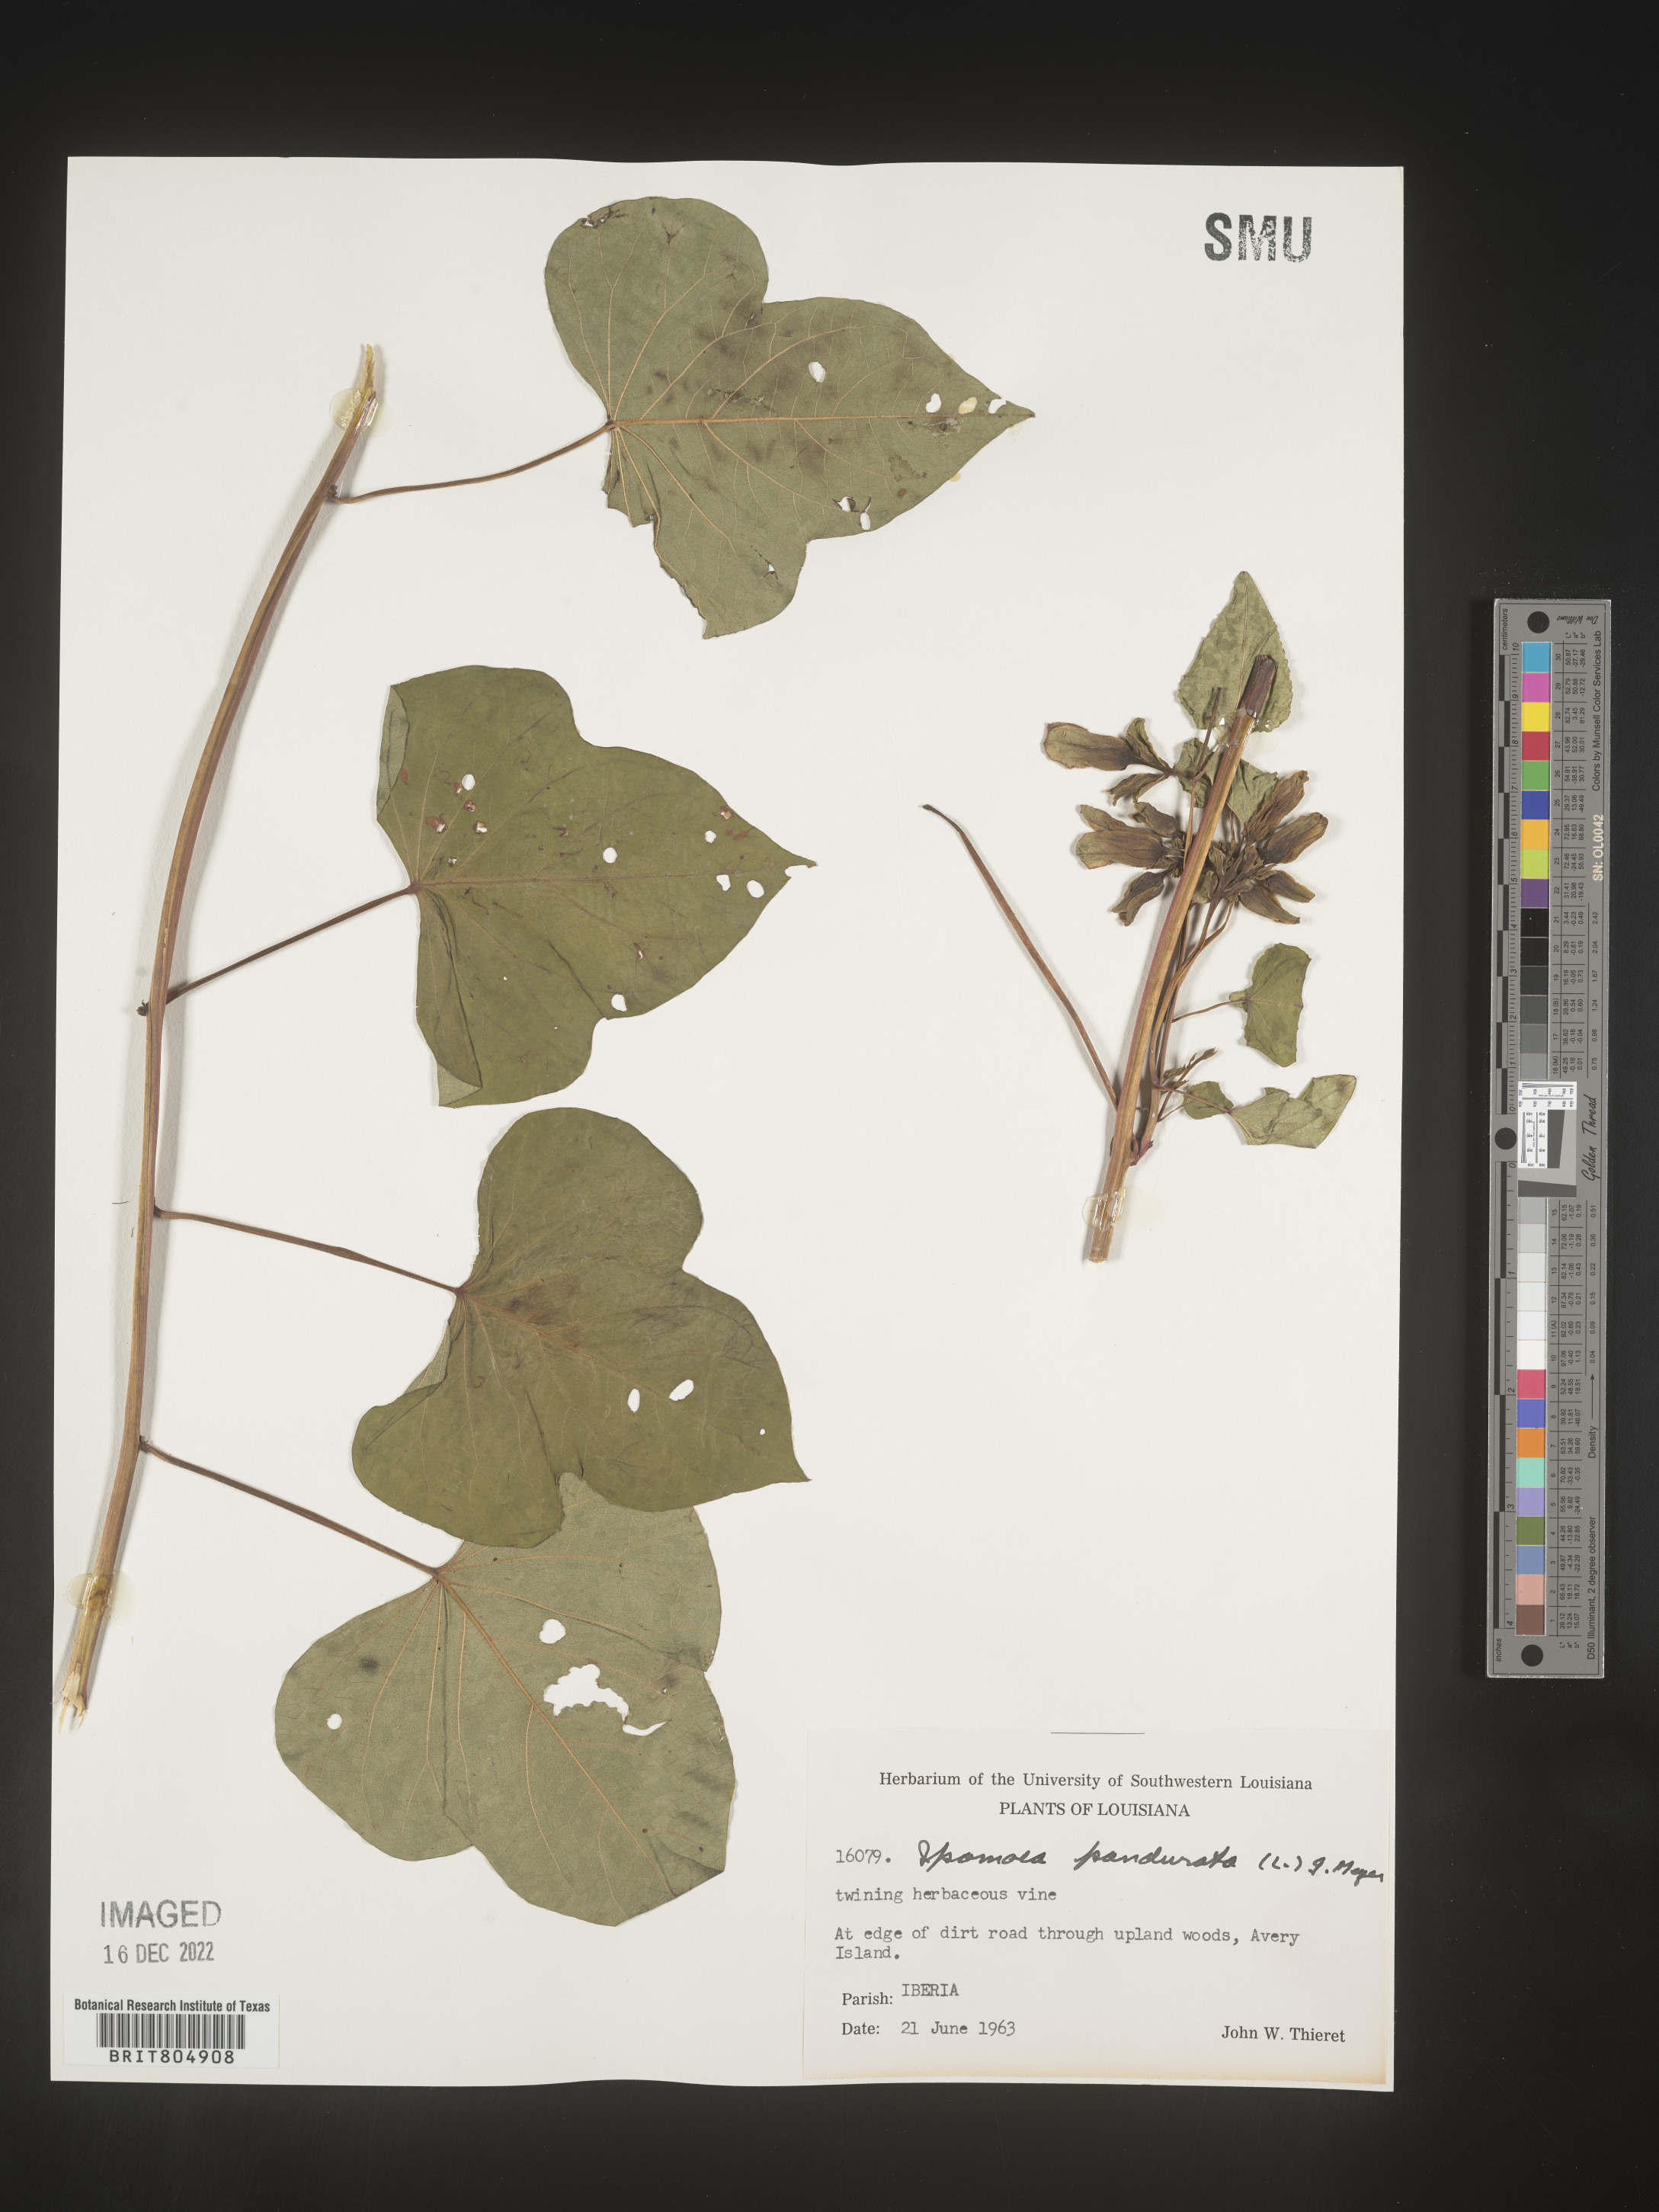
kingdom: Plantae
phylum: Tracheophyta
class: Magnoliopsida
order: Solanales
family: Convolvulaceae
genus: Ipomoea
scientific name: Ipomoea pandurata
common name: Man-of-the-earth
